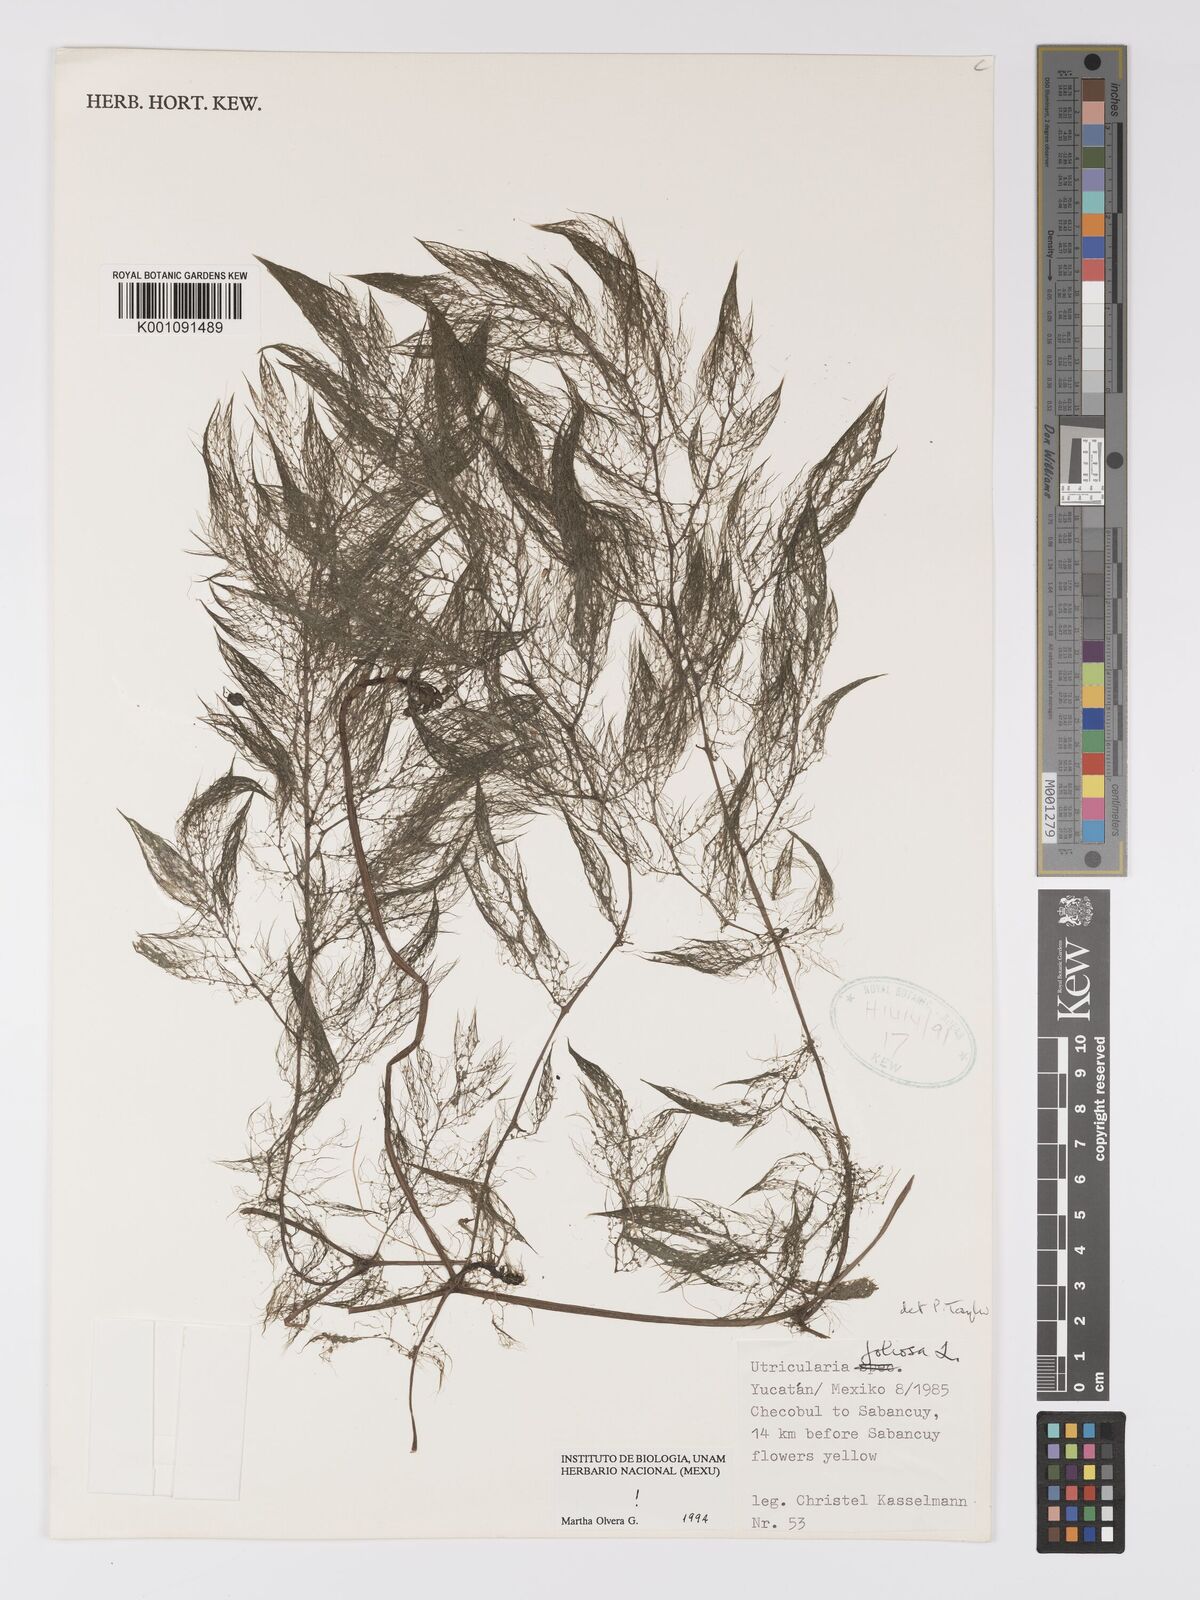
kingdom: Plantae
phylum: Tracheophyta
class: Magnoliopsida
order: Lamiales
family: Lentibulariaceae
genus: Utricularia
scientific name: Utricularia foliosa
